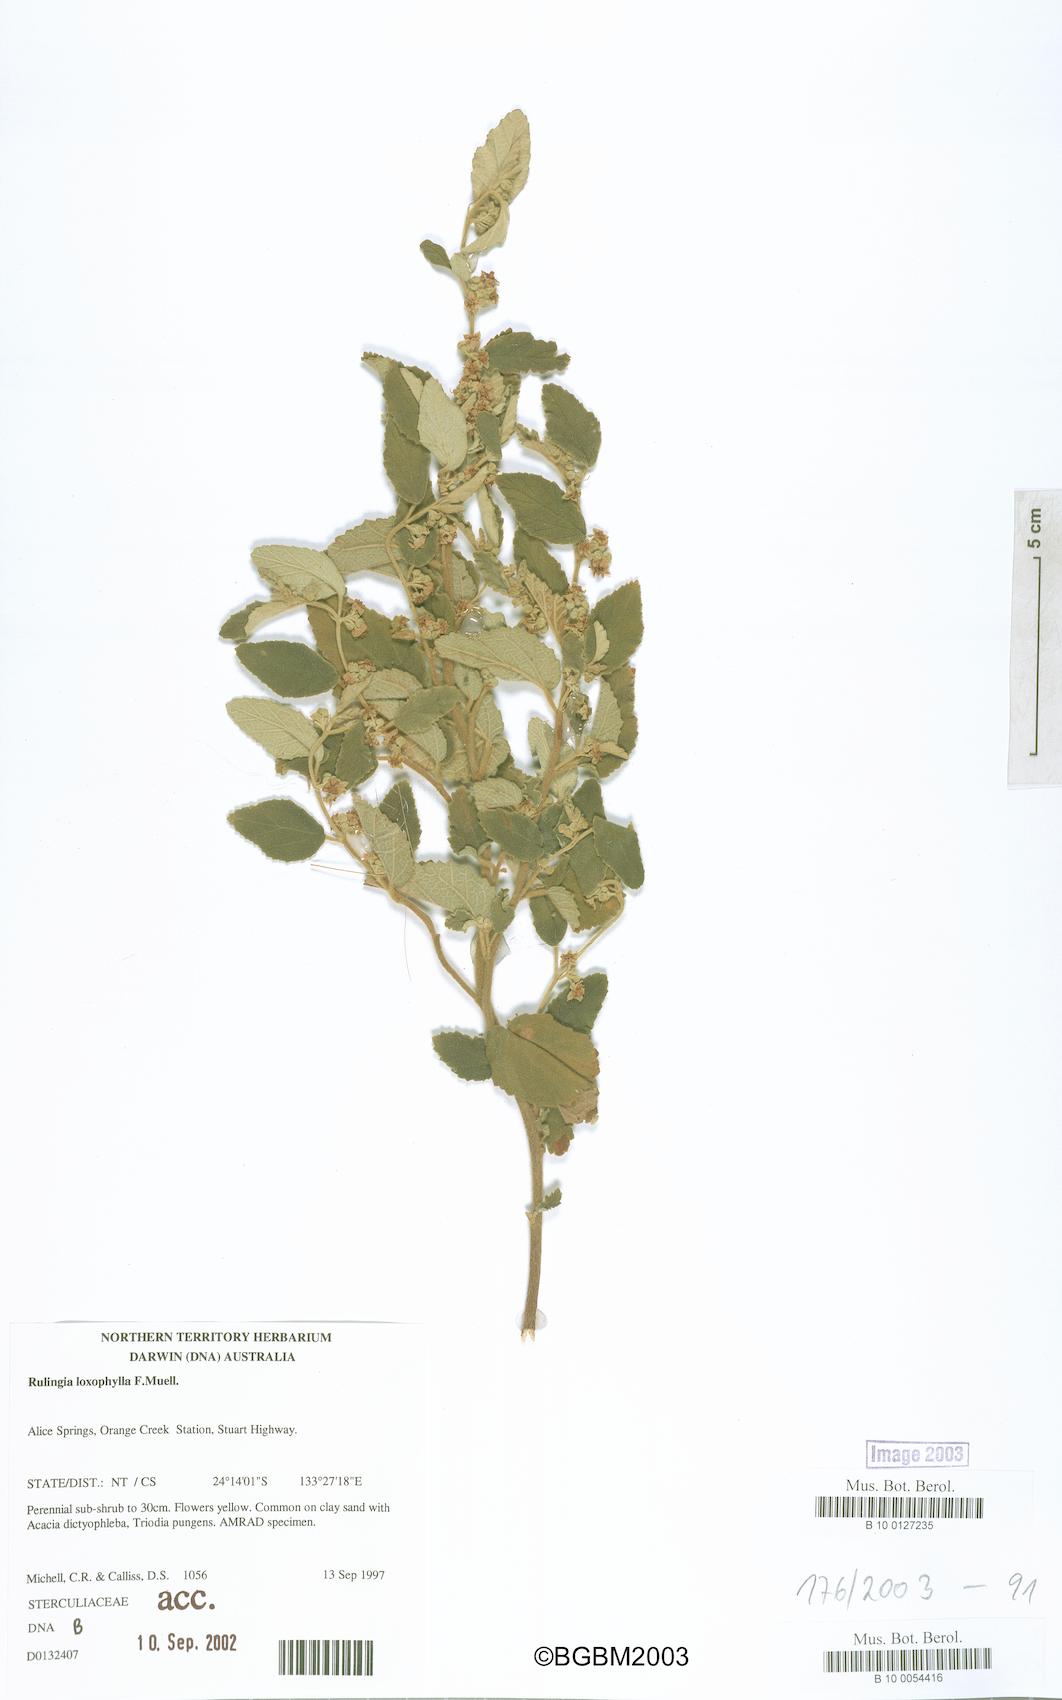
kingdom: Plantae
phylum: Tracheophyta
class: Magnoliopsida
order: Malvales
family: Malvaceae
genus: Androcalva
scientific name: Androcalva loxophylla
